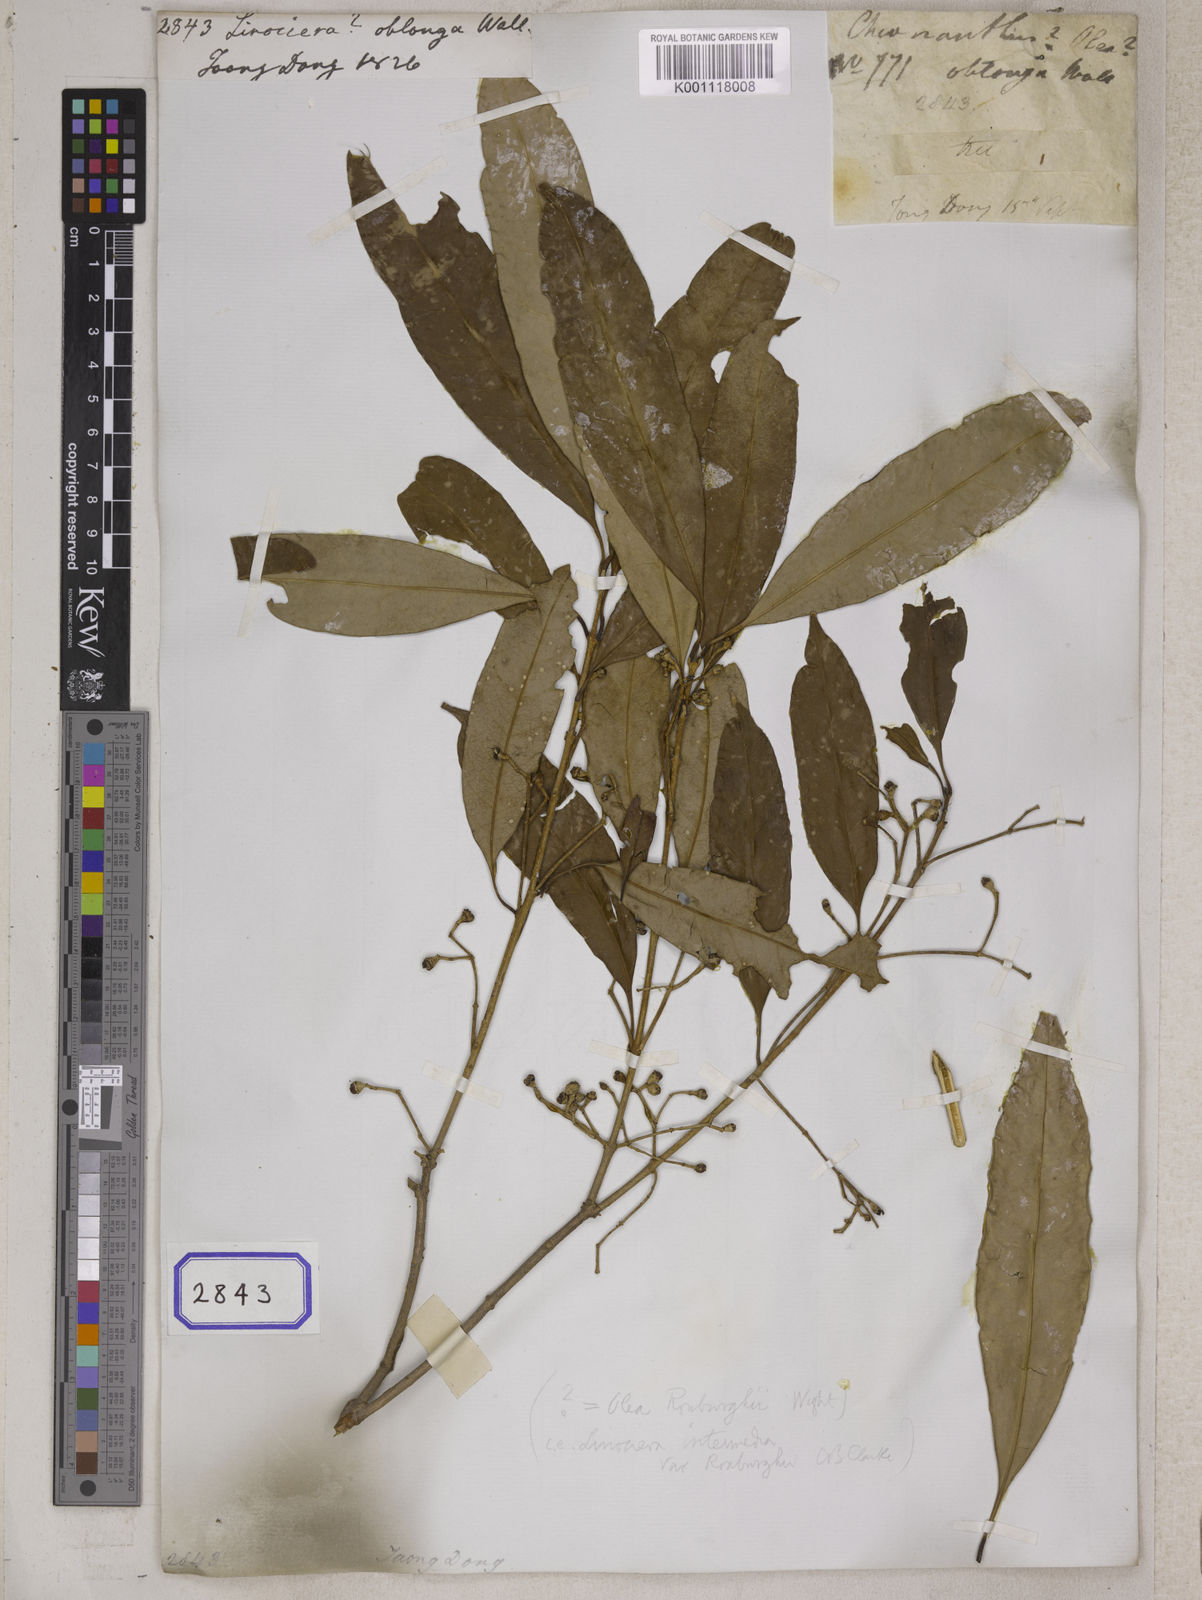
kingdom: Plantae
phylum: Tracheophyta
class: Magnoliopsida
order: Lamiales
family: Oleaceae
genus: Chionanthus
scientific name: Chionanthus
